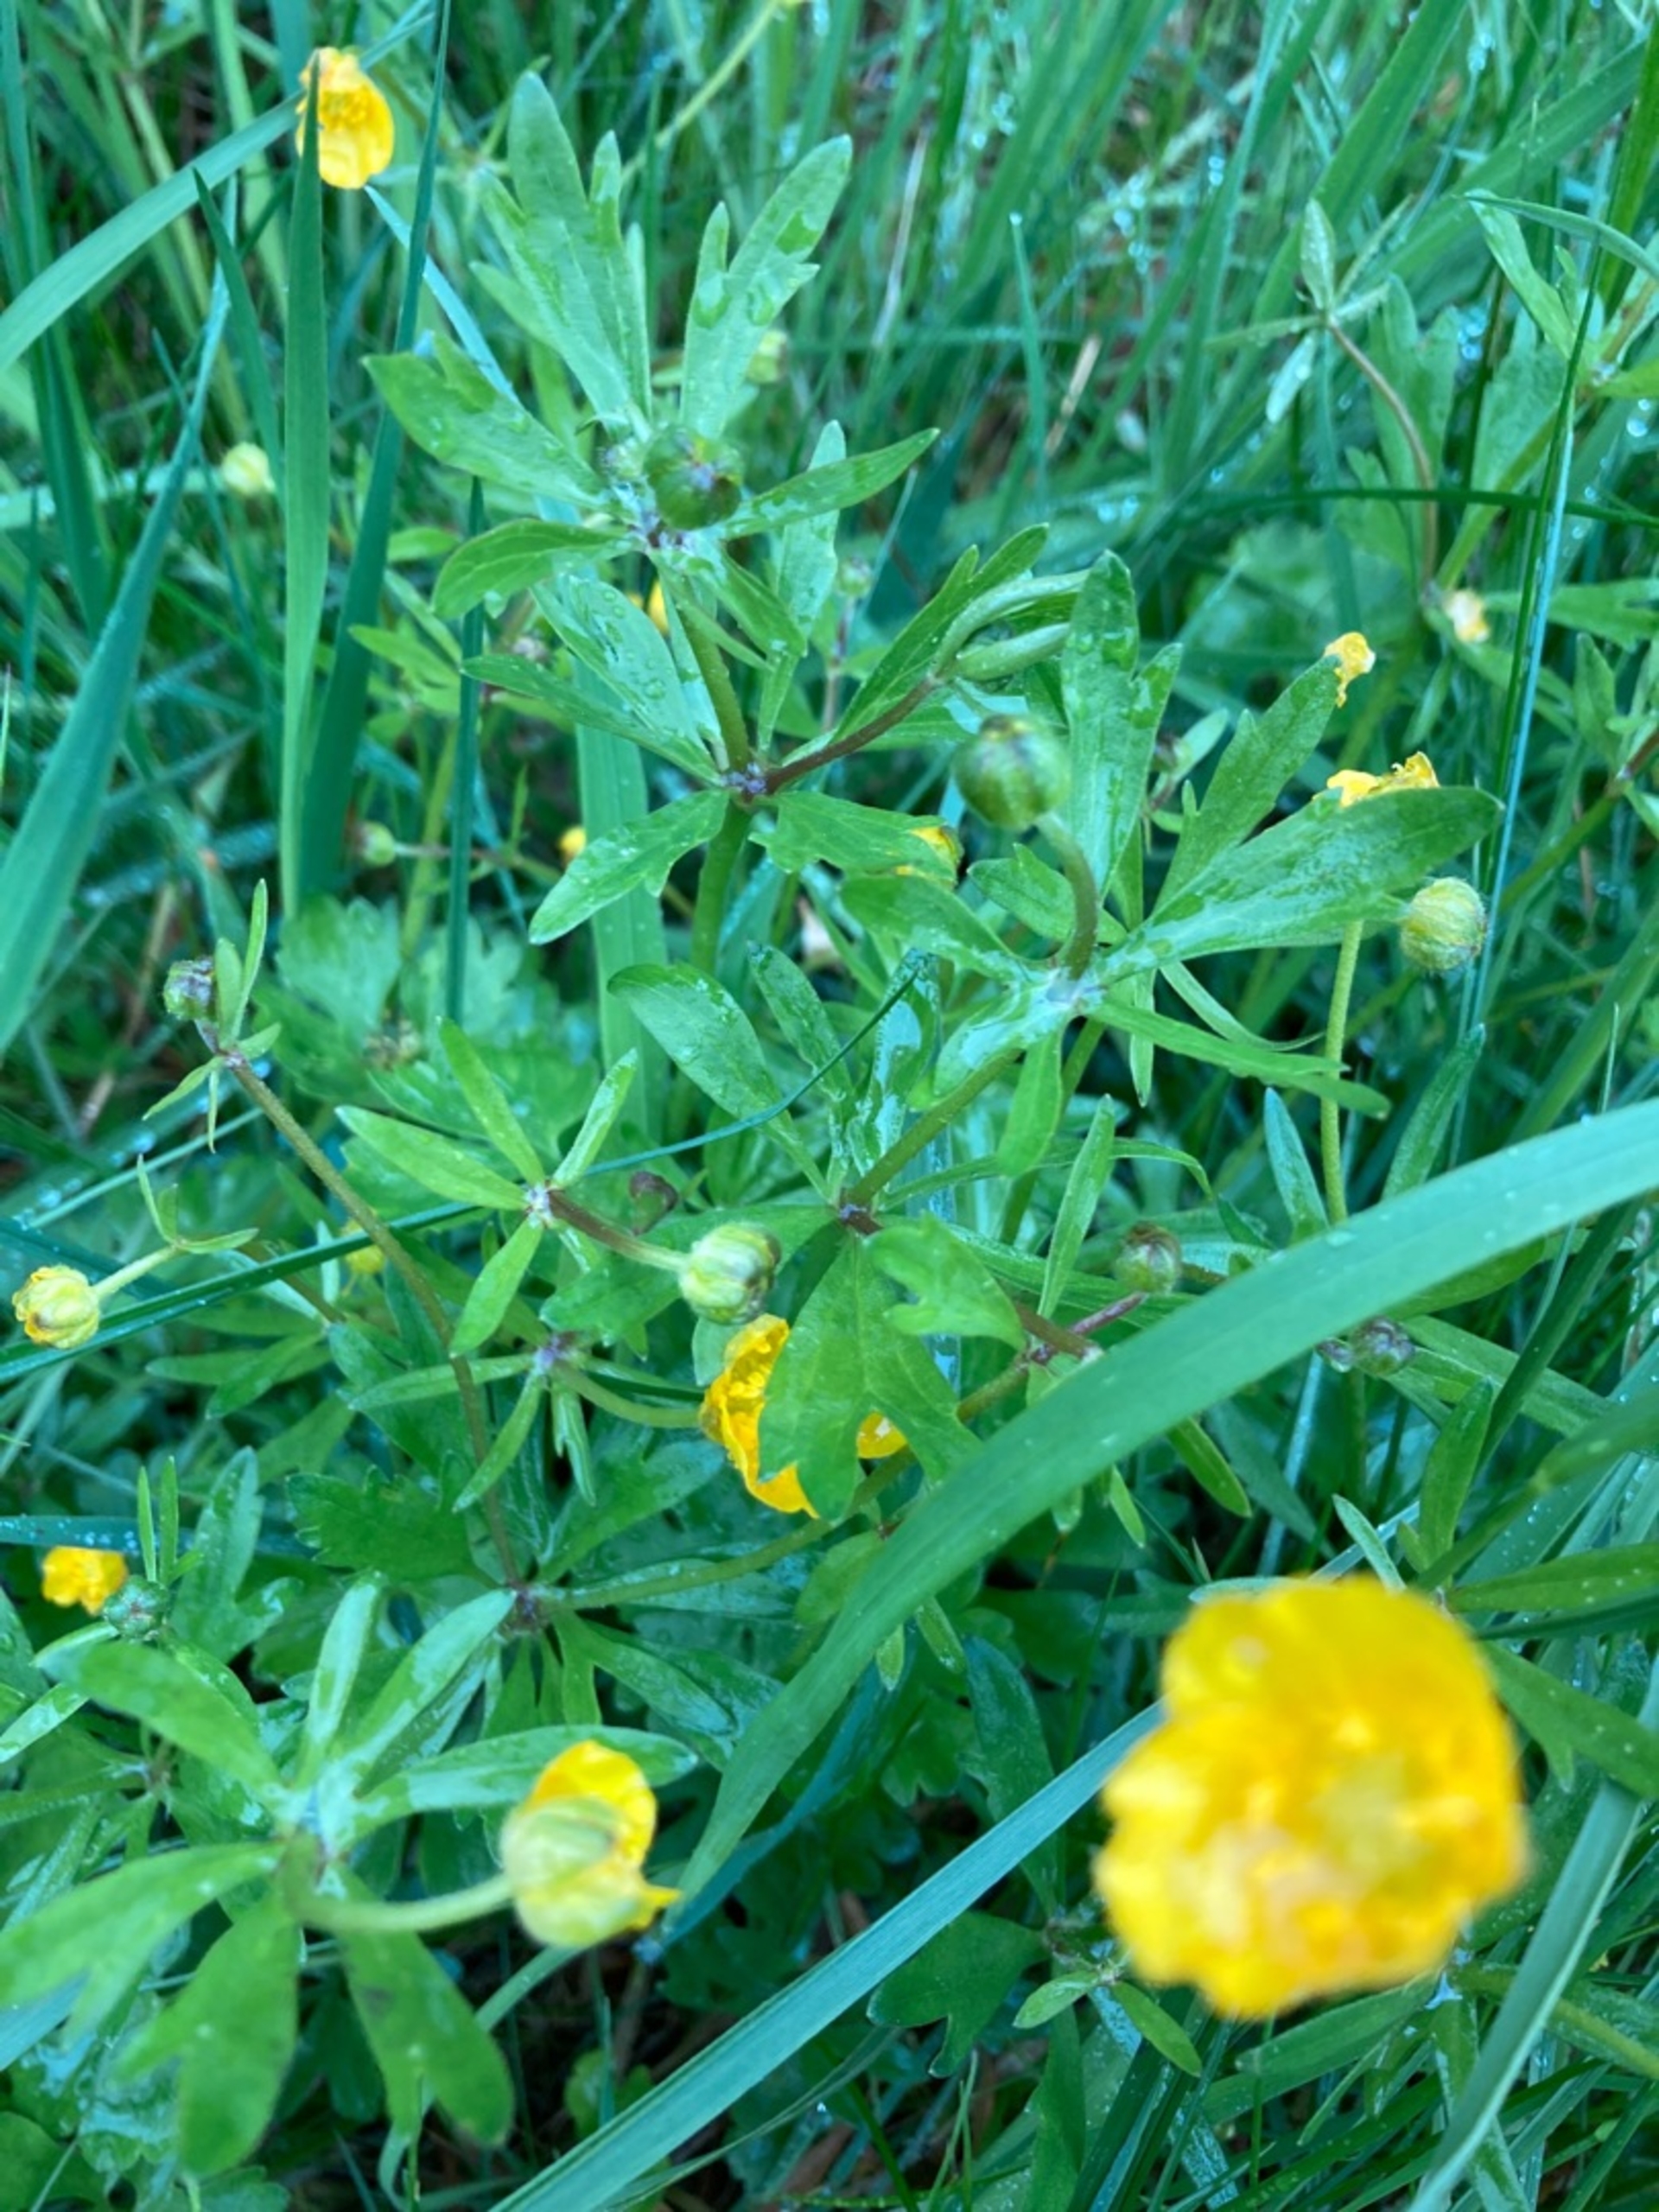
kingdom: Plantae
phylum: Tracheophyta
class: Magnoliopsida
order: Ranunculales
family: Ranunculaceae
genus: Ranunculus
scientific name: Ranunculus auricomus
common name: Nyrebladet ranunkel
